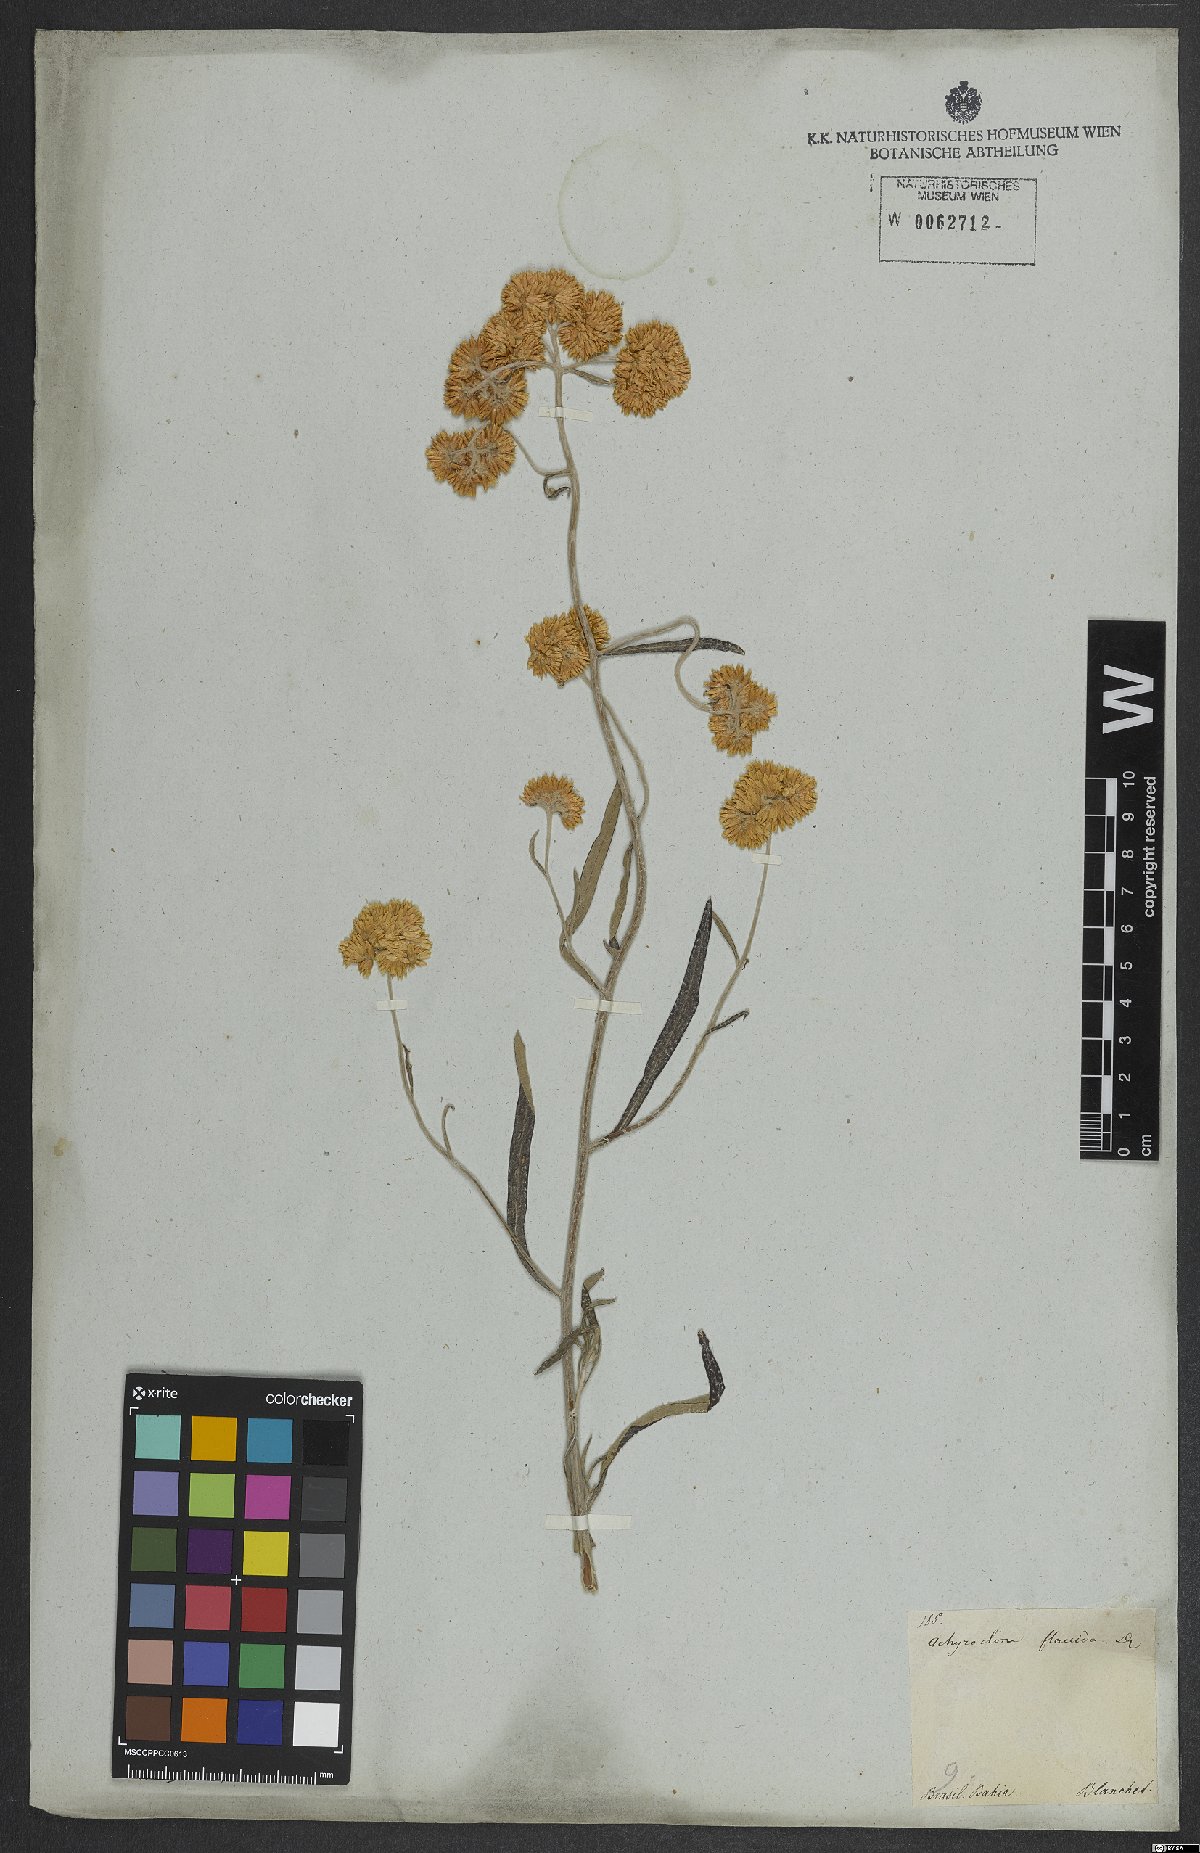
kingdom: Plantae
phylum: Tracheophyta
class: Magnoliopsida
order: Asterales
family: Asteraceae
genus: Achyrocline
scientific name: Achyrocline flaccida
